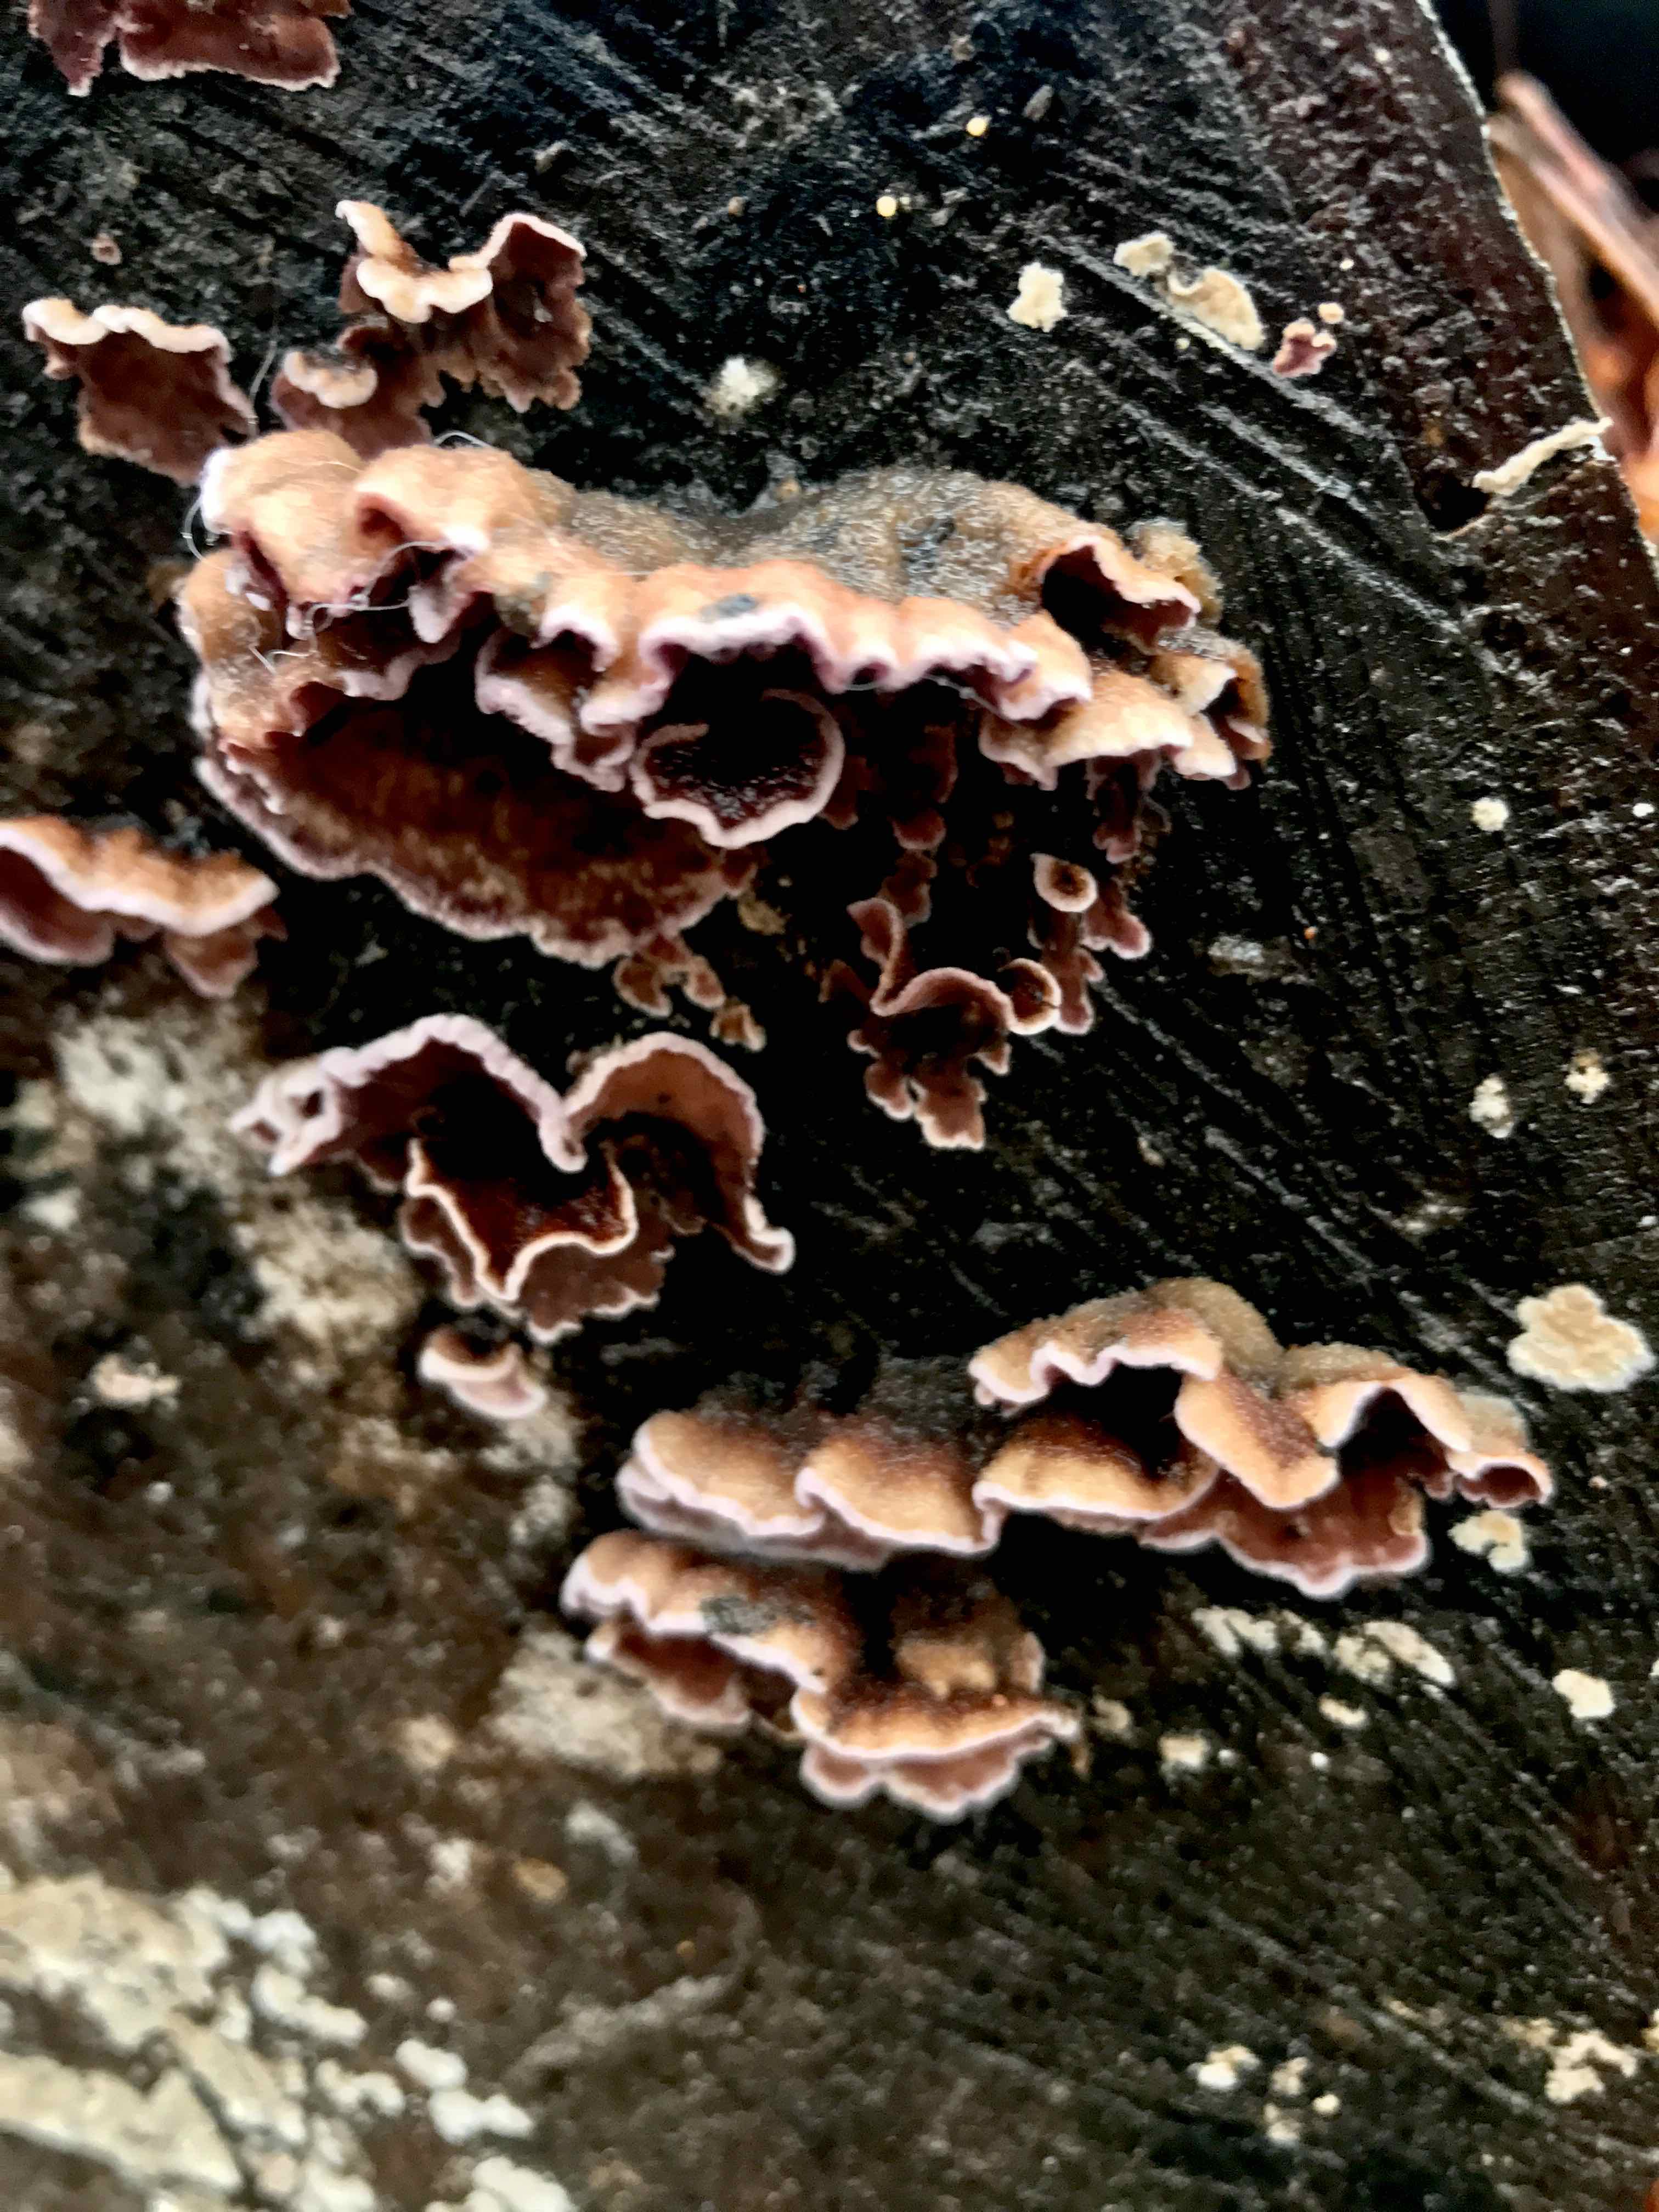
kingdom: Fungi
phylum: Basidiomycota
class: Agaricomycetes
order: Agaricales
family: Cyphellaceae
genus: Chondrostereum
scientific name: Chondrostereum purpureum
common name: purpurlædersvamp
